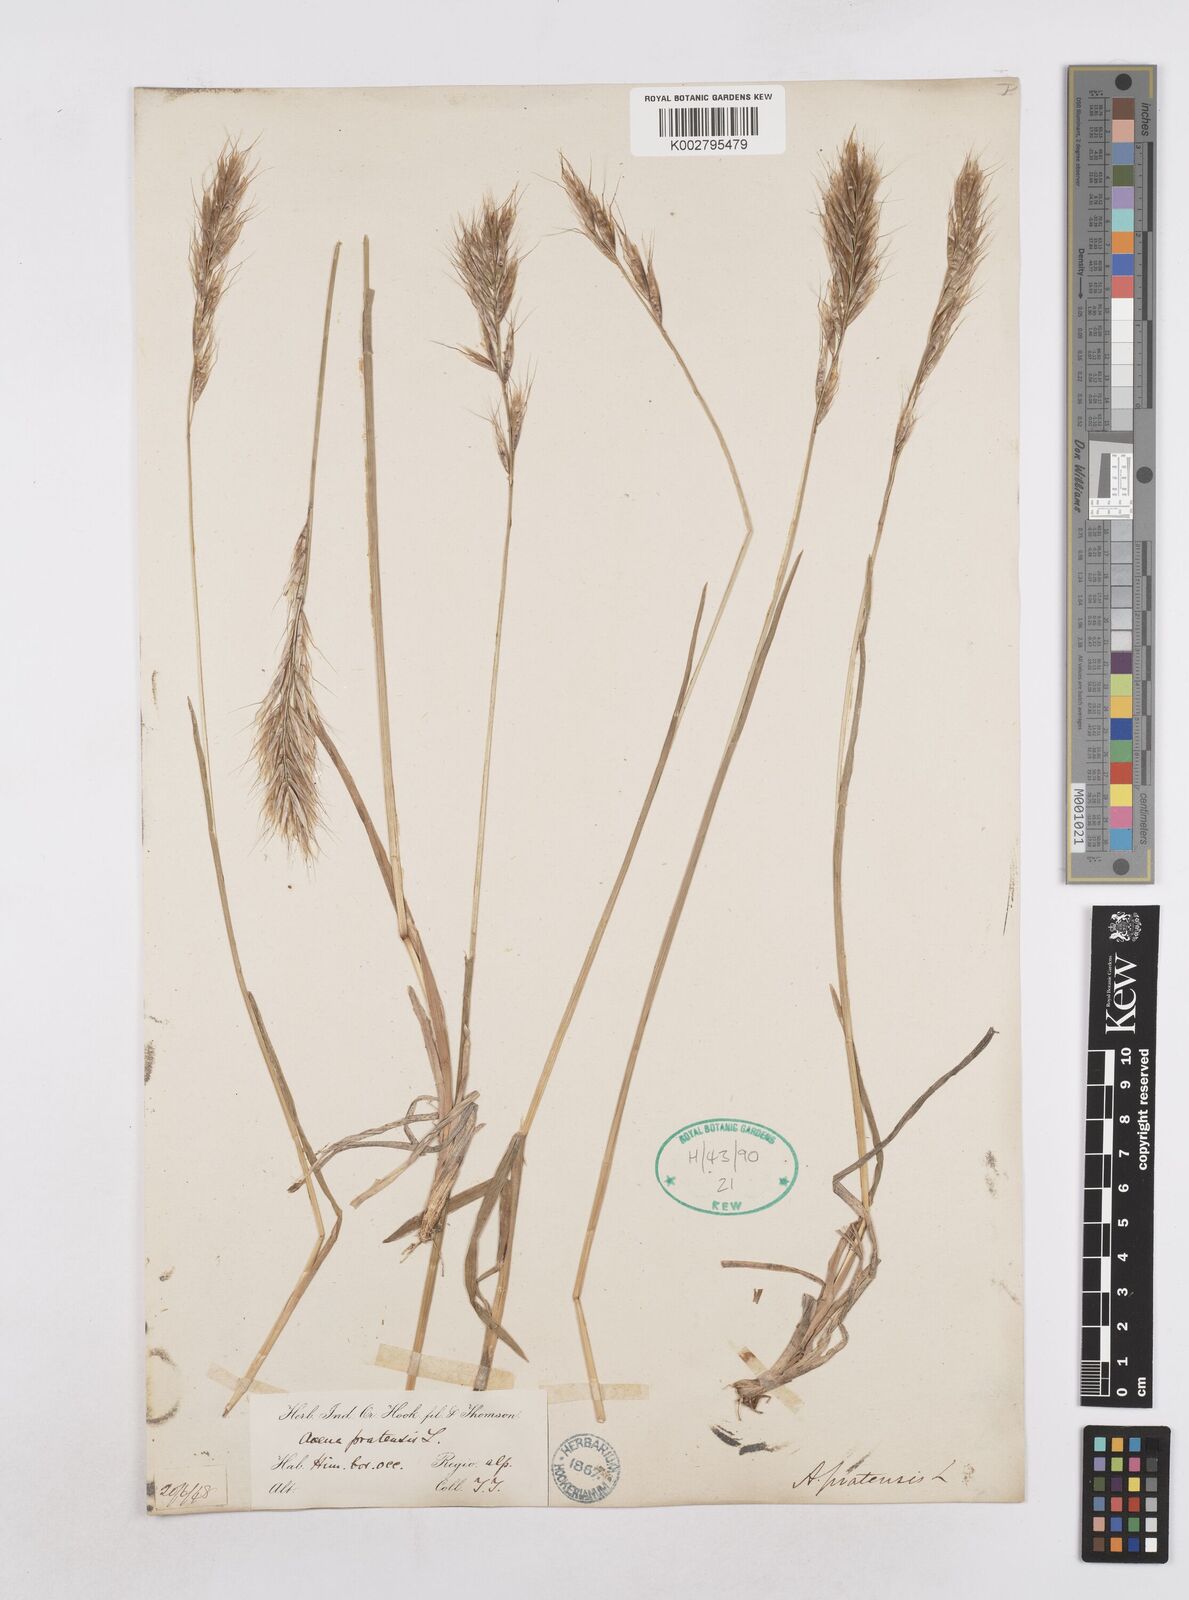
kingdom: Plantae
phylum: Tracheophyta
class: Liliopsida
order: Poales
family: Poaceae
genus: Helictochloa
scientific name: Helictochloa pratensis
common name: Meadow oat grass
